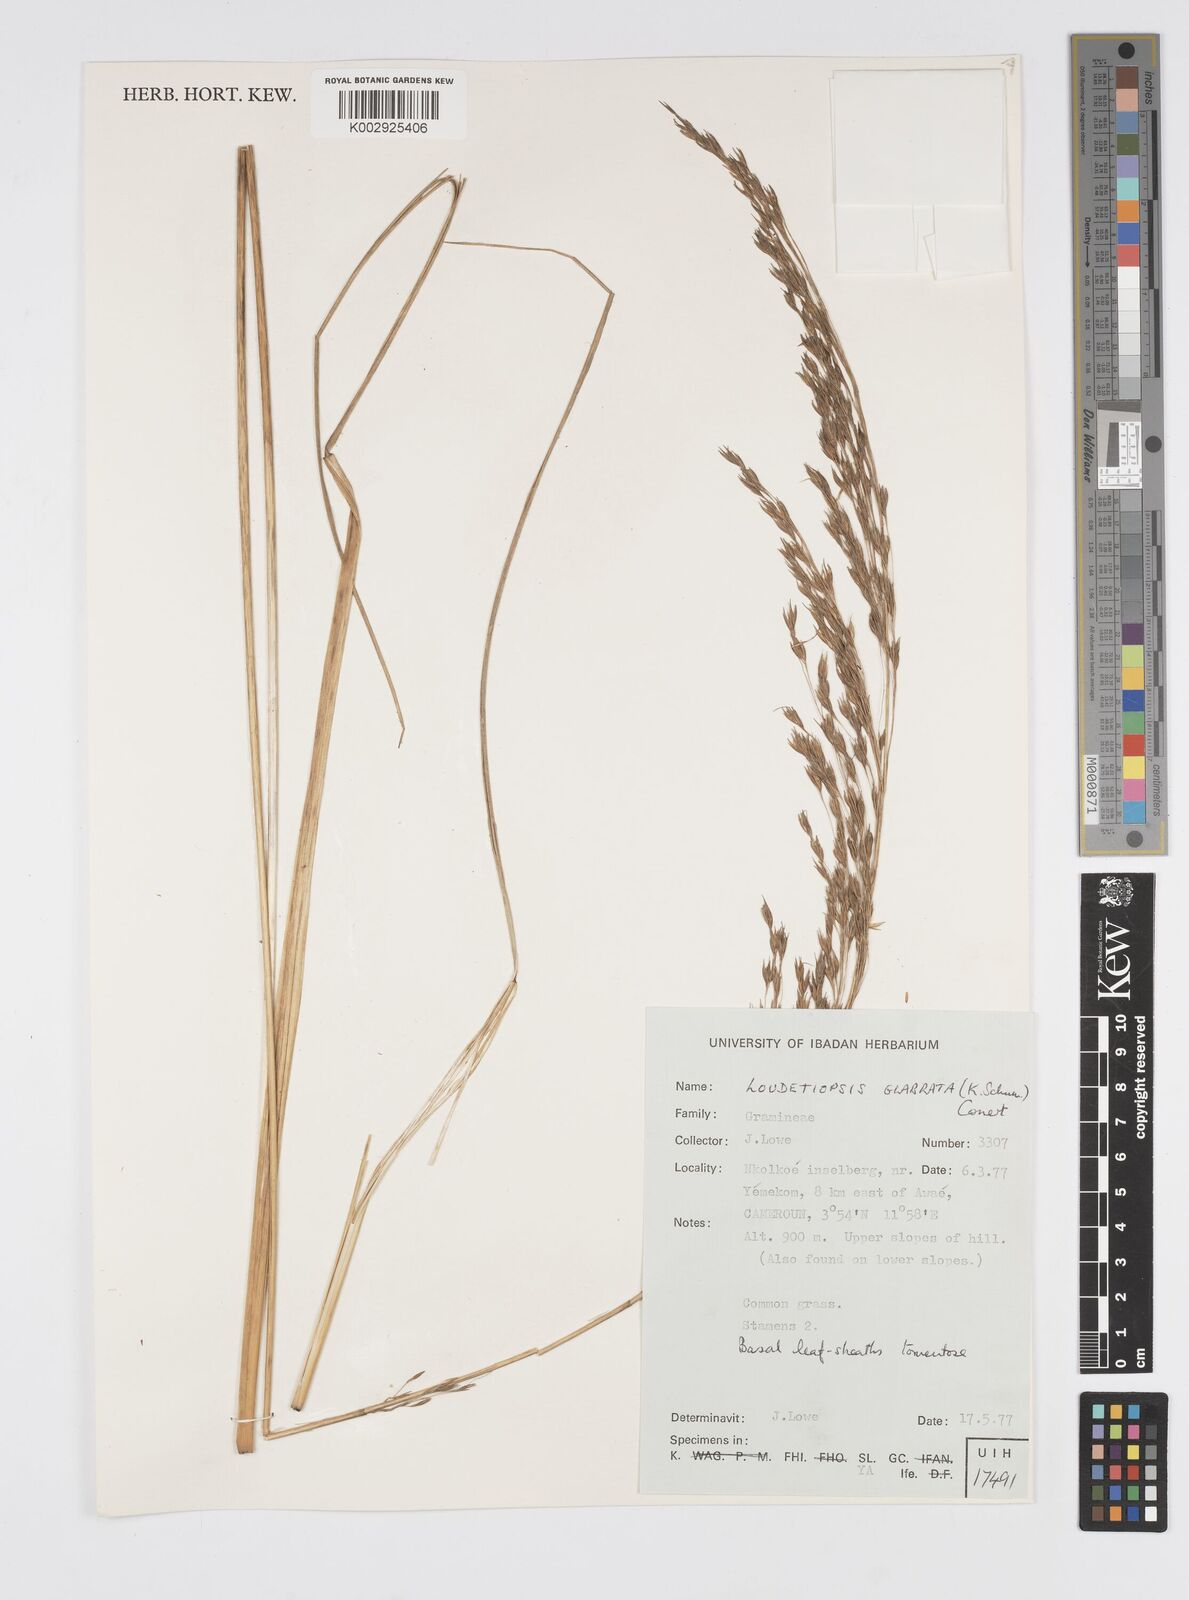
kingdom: Plantae
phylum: Tracheophyta
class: Liliopsida
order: Poales
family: Poaceae
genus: Loudetiopsis
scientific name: Loudetiopsis glabrata
